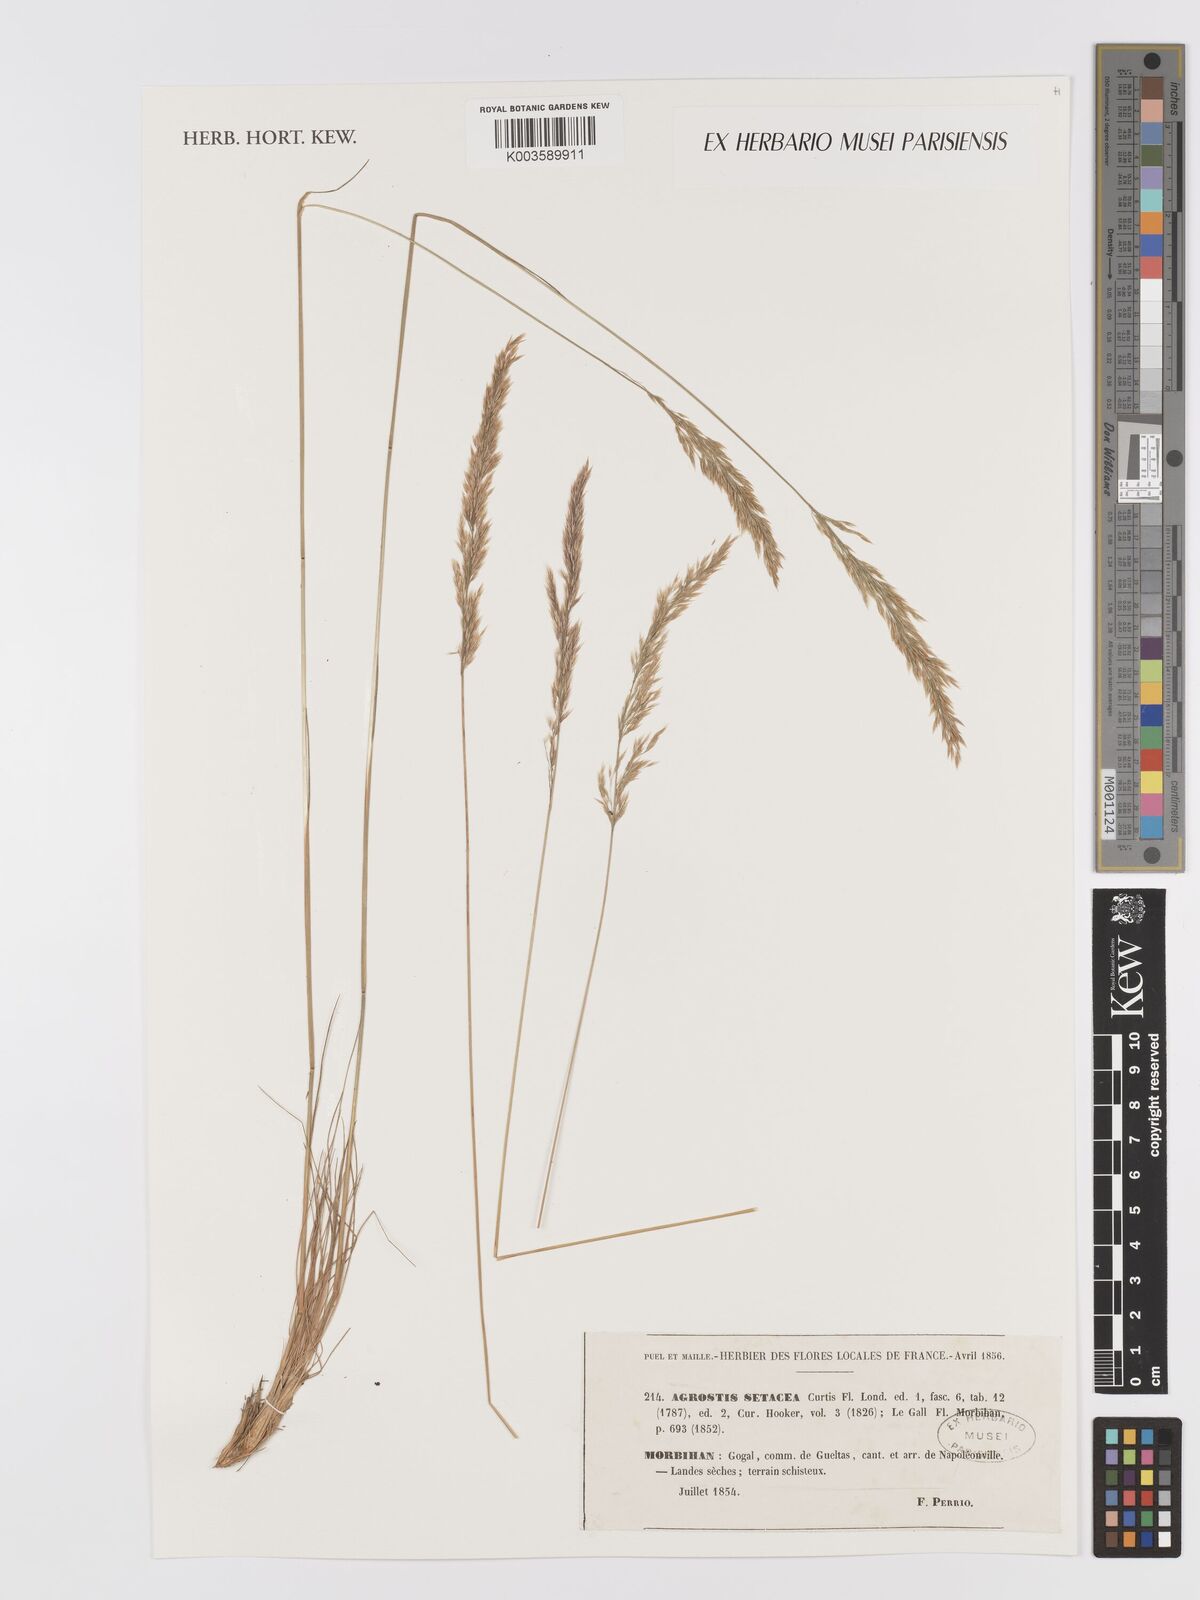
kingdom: Plantae
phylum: Tracheophyta
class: Liliopsida
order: Poales
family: Poaceae
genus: Alpagrostis
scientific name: Alpagrostis setacea
